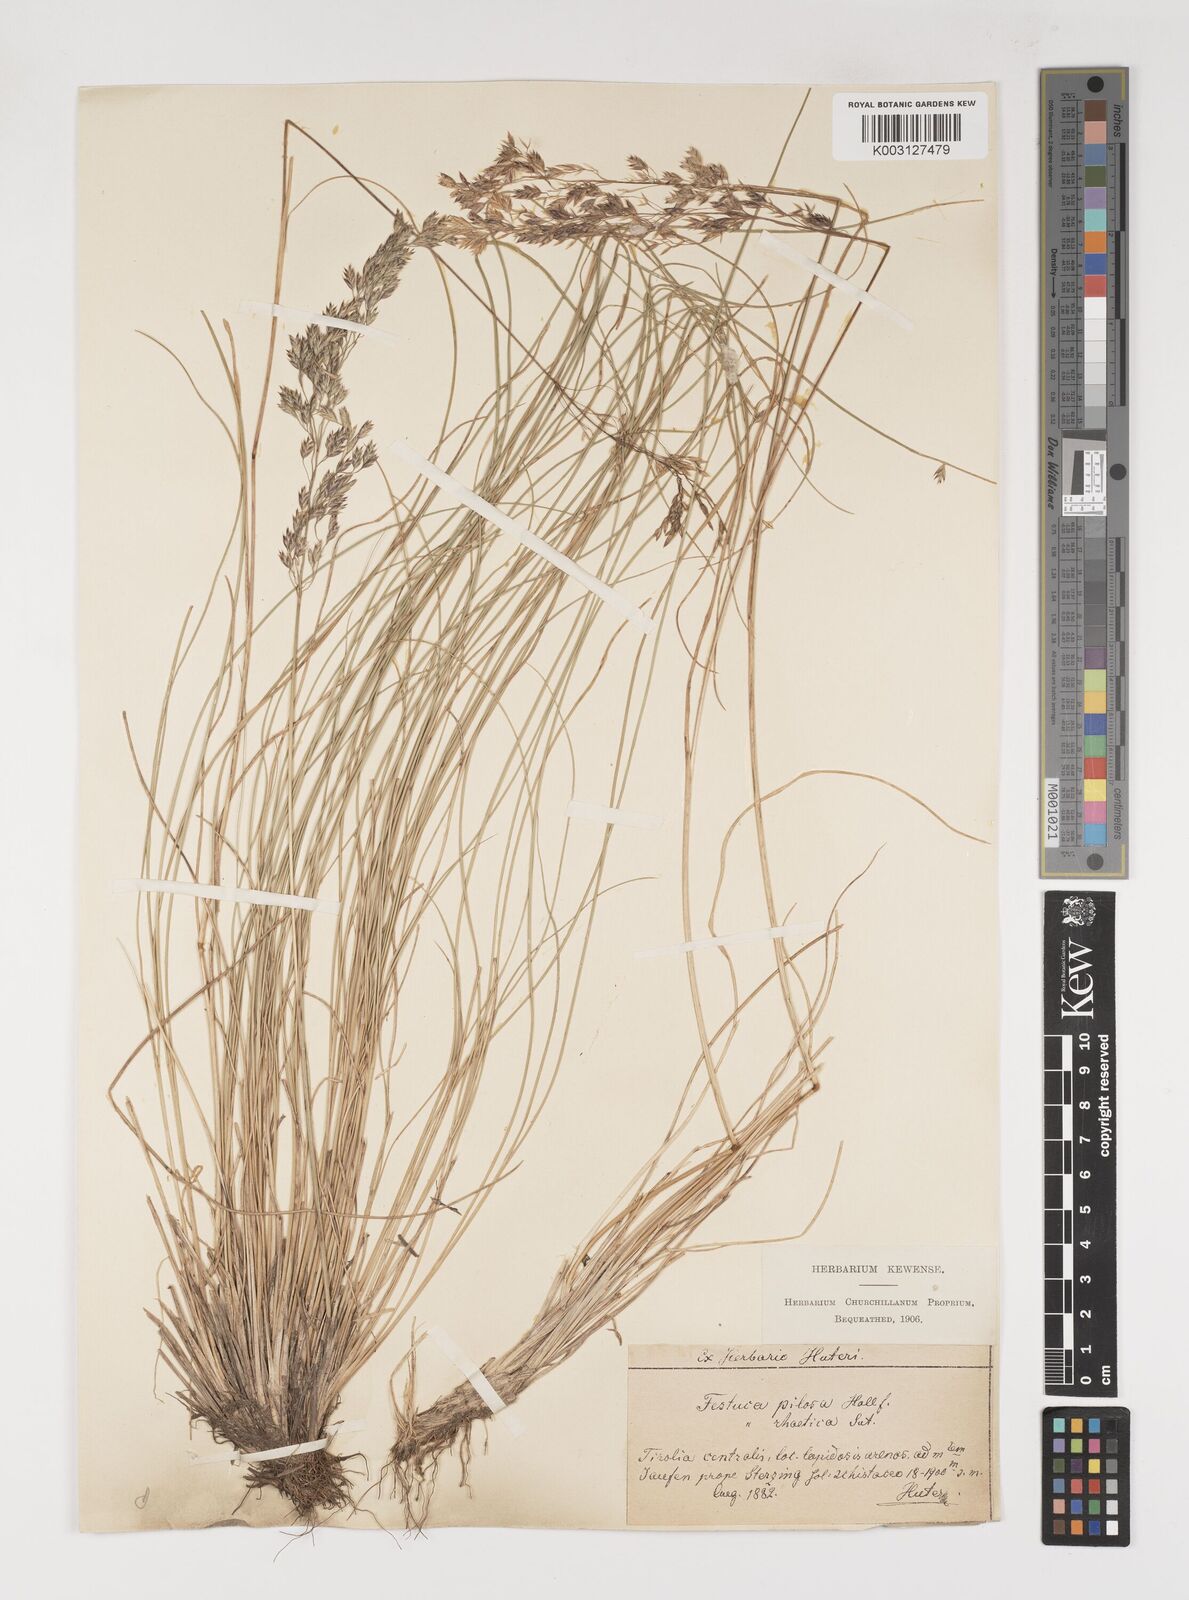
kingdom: Plantae
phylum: Tracheophyta
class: Liliopsida
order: Poales
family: Poaceae
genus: Bellardiochloa
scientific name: Bellardiochloa variegata
